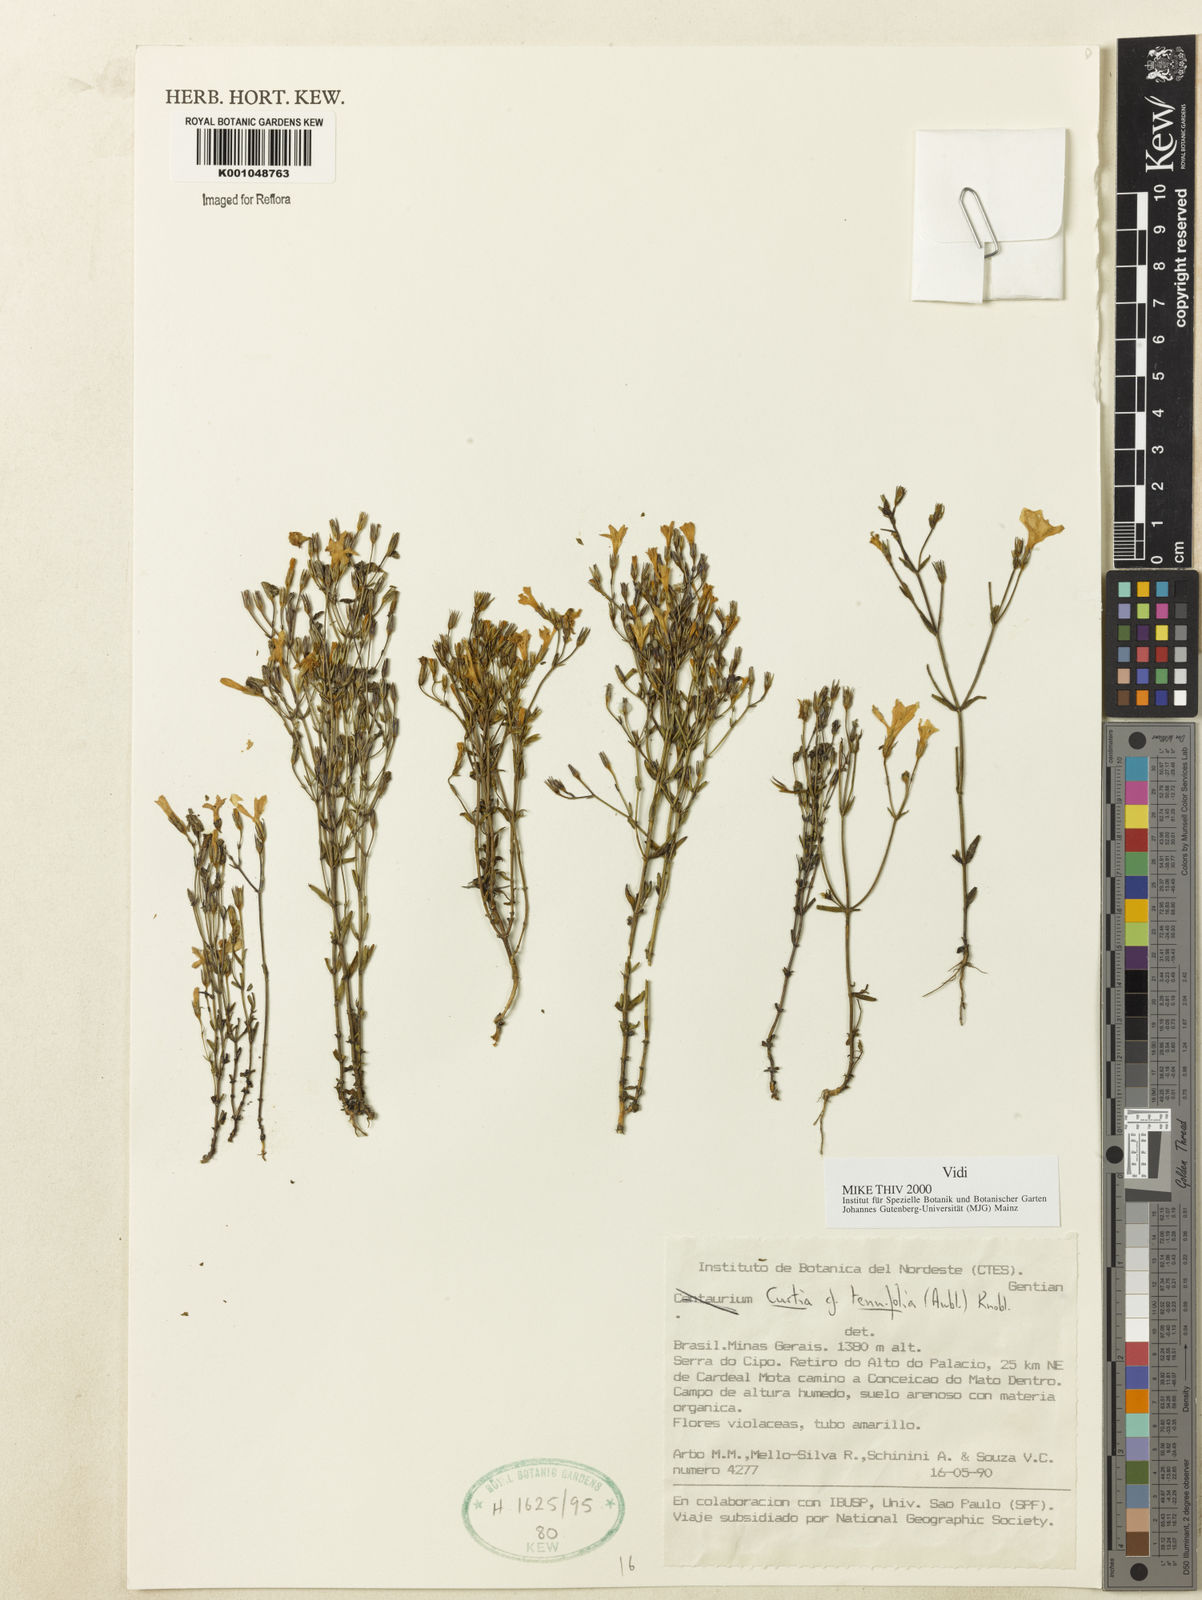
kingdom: Plantae
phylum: Tracheophyta
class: Magnoliopsida
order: Gentianales
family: Gentianaceae
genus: Curtia
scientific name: Curtia tenuifolia
